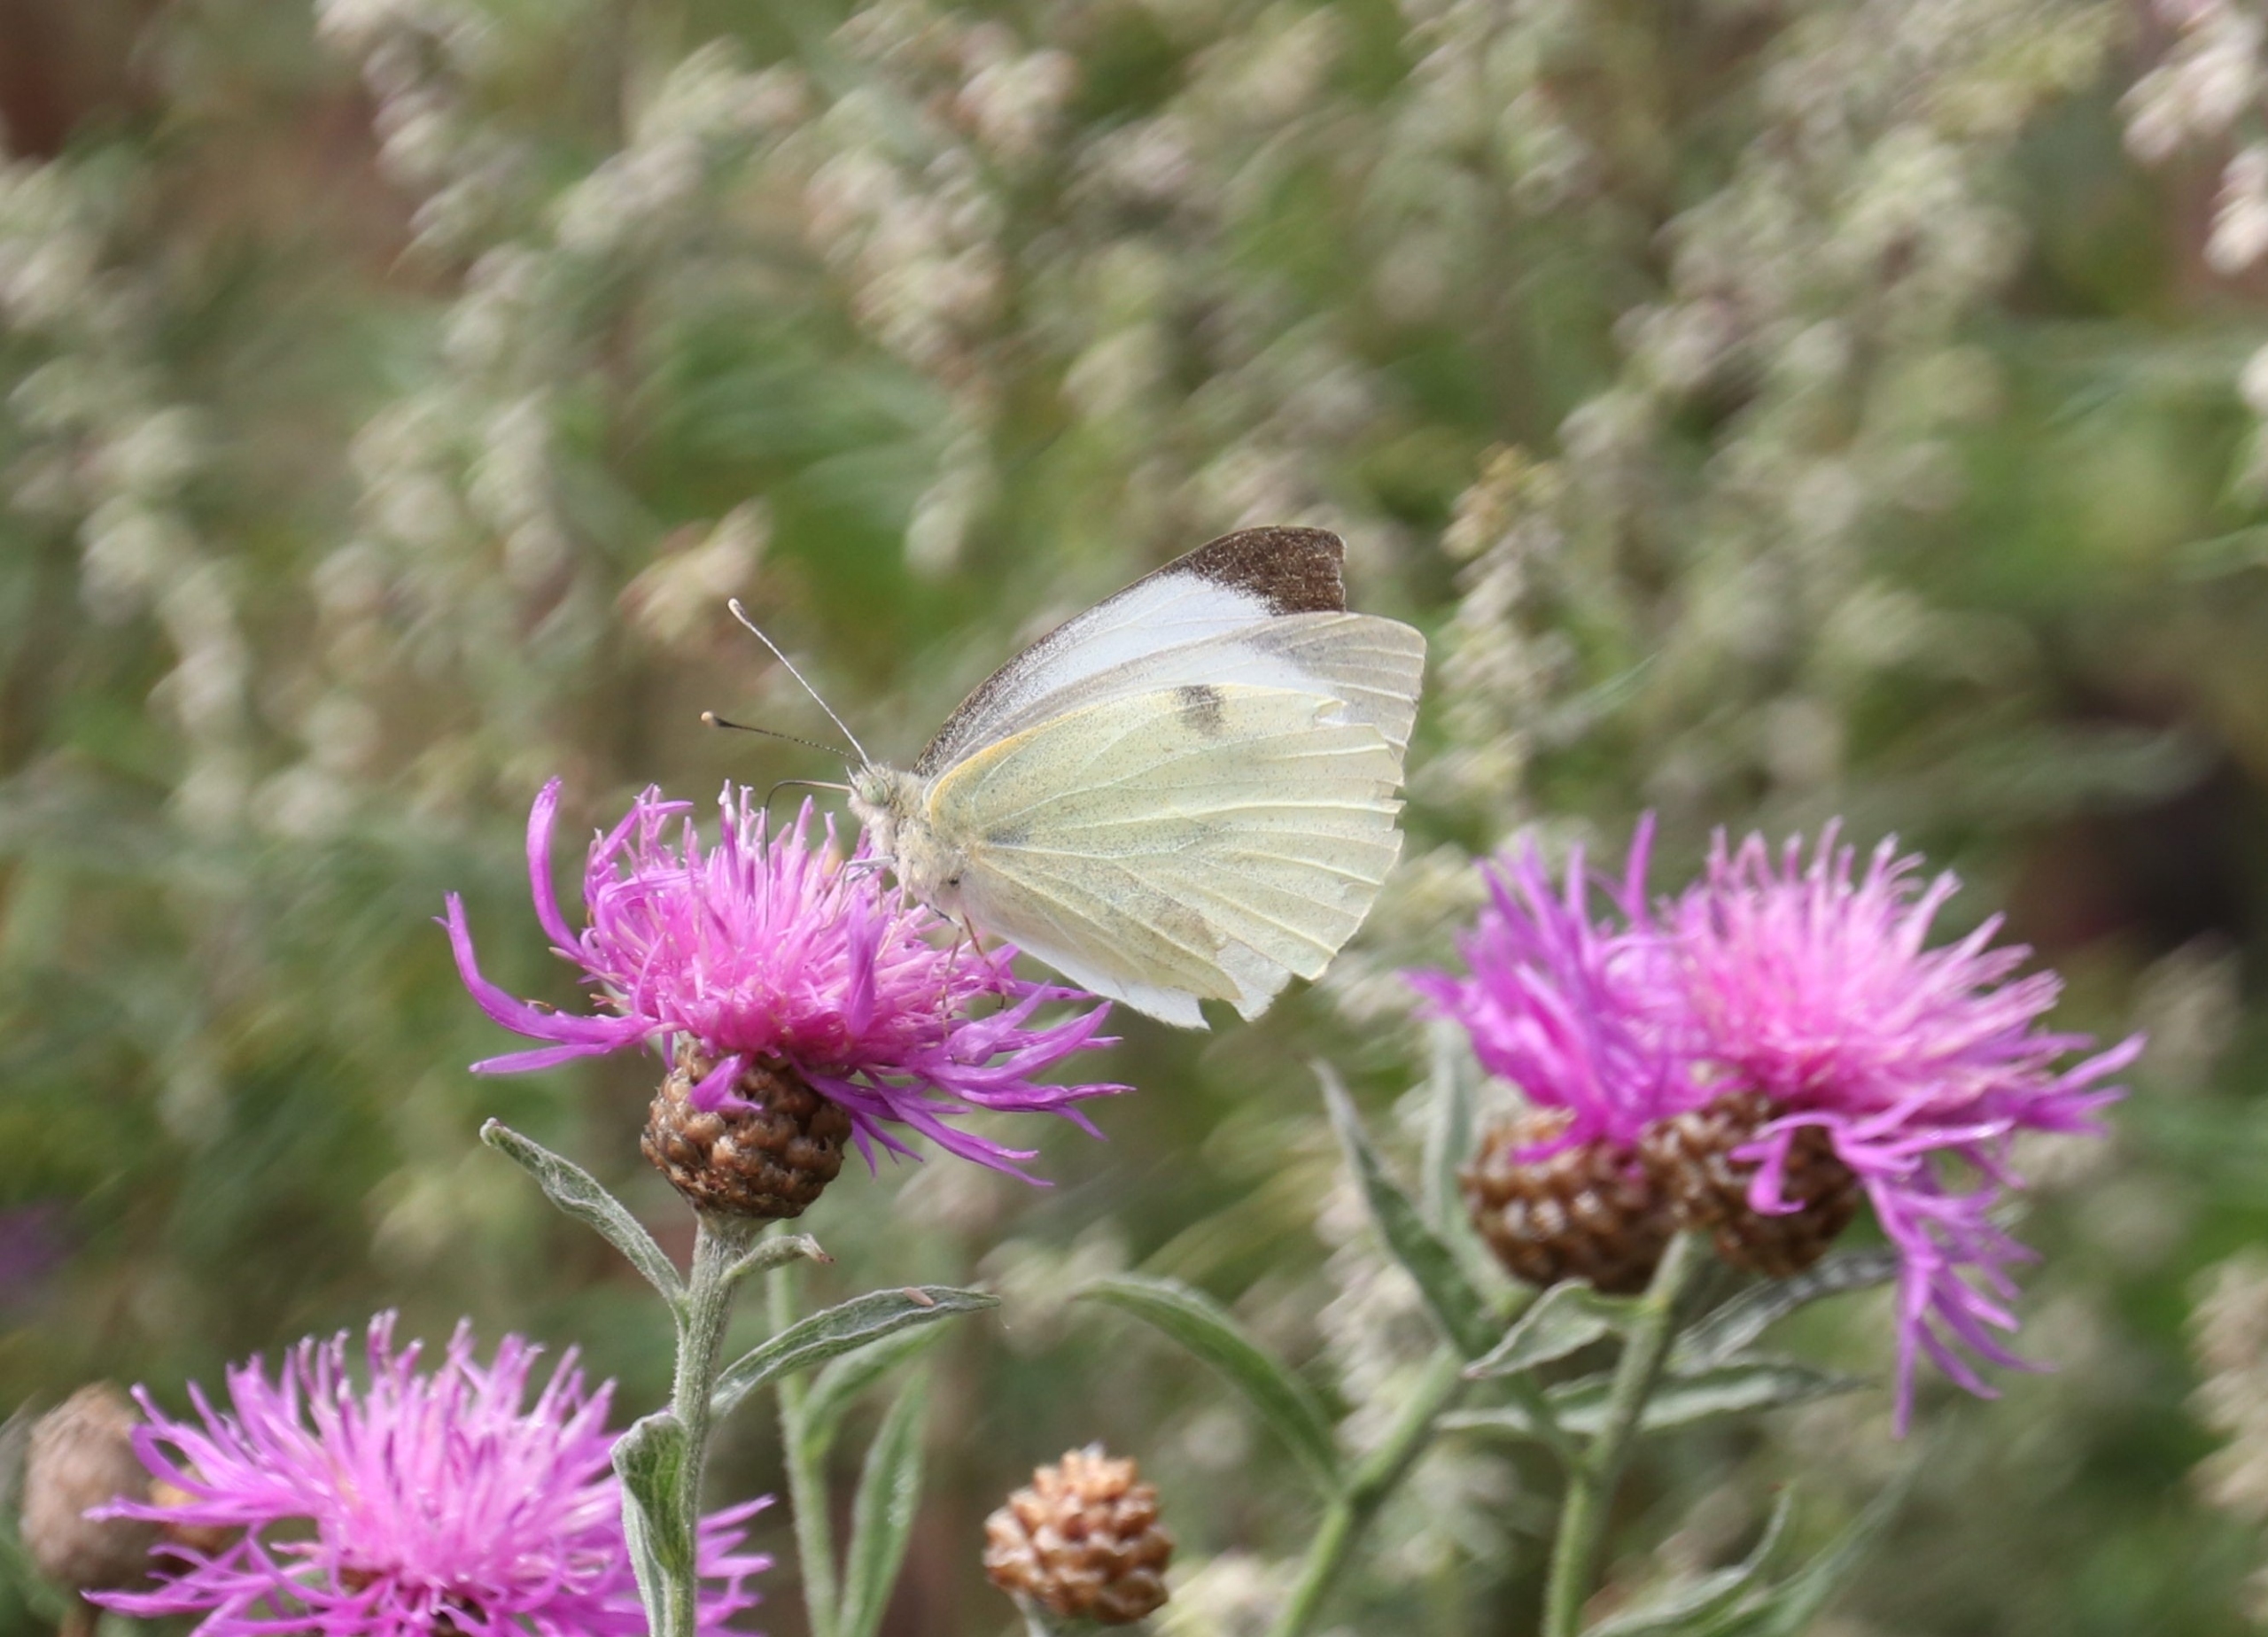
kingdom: Animalia
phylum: Arthropoda
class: Insecta
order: Lepidoptera
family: Pieridae
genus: Pieris
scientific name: Pieris brassicae
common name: Stor kålsommerfugl
